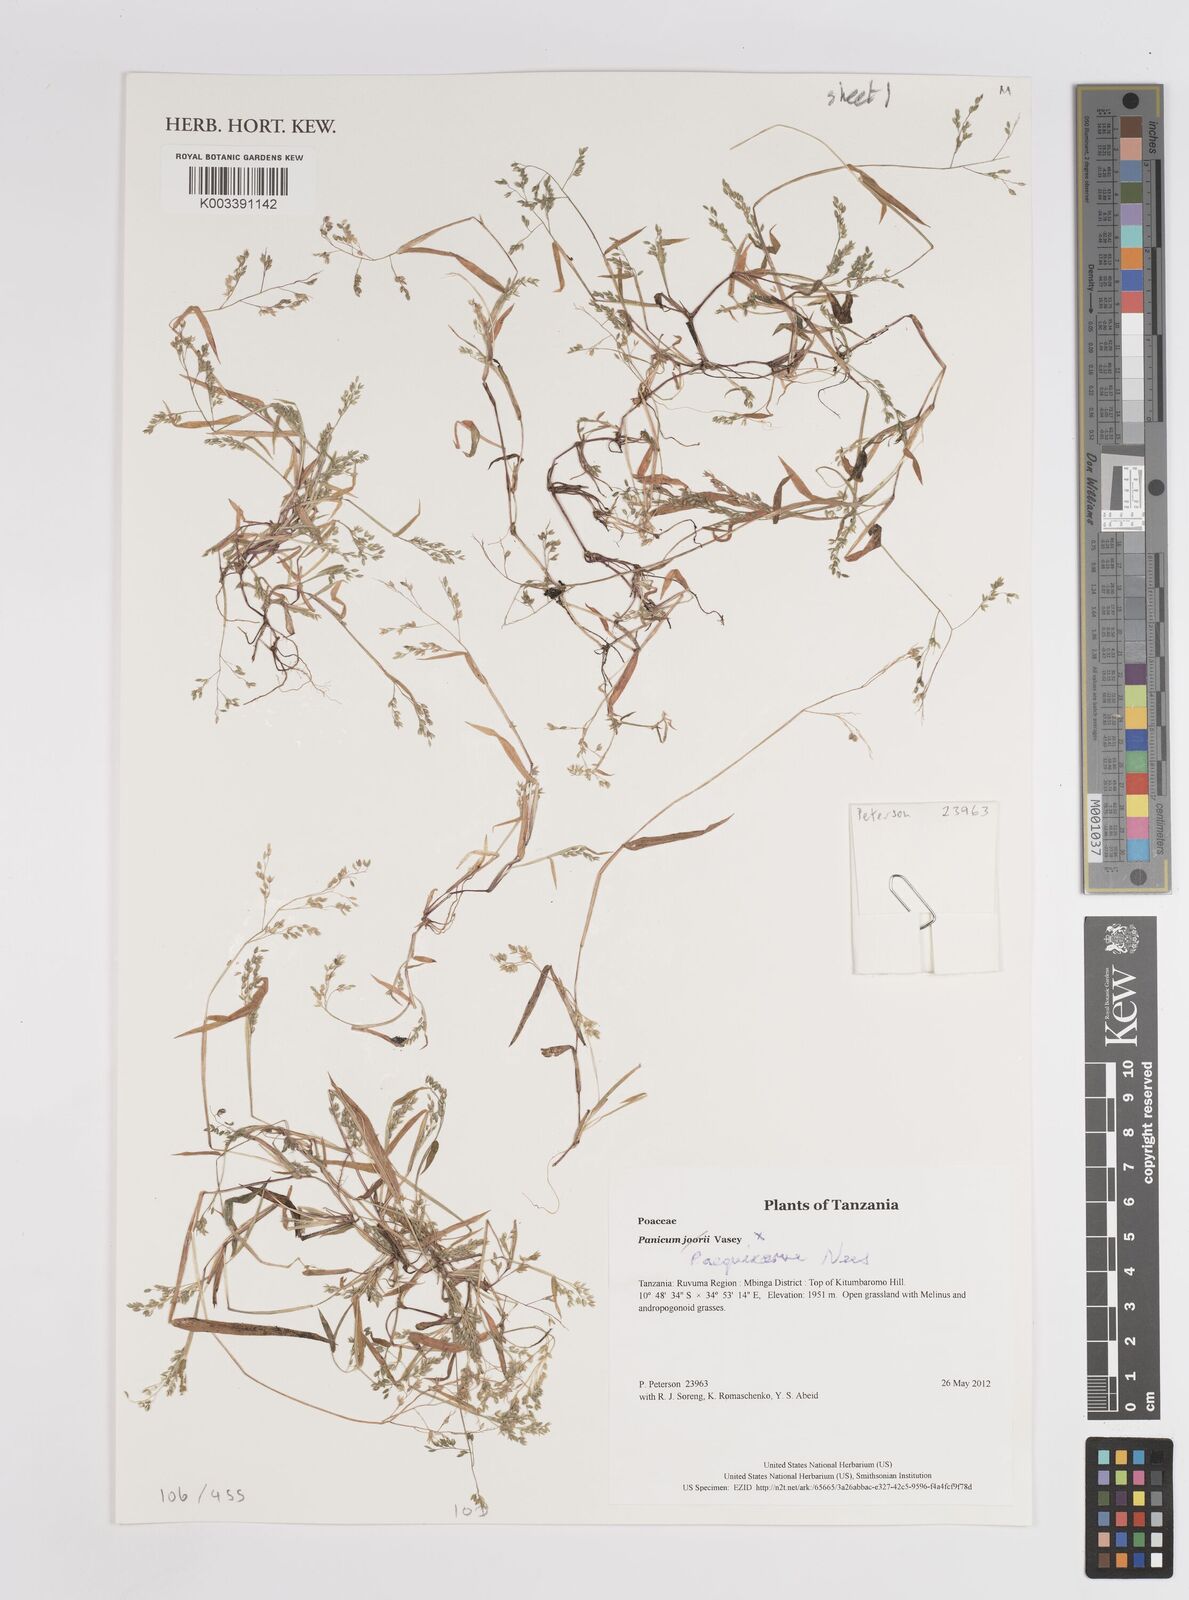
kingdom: Plantae
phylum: Tracheophyta
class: Liliopsida
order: Poales
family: Poaceae
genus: Panicum
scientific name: Panicum aequinerve
